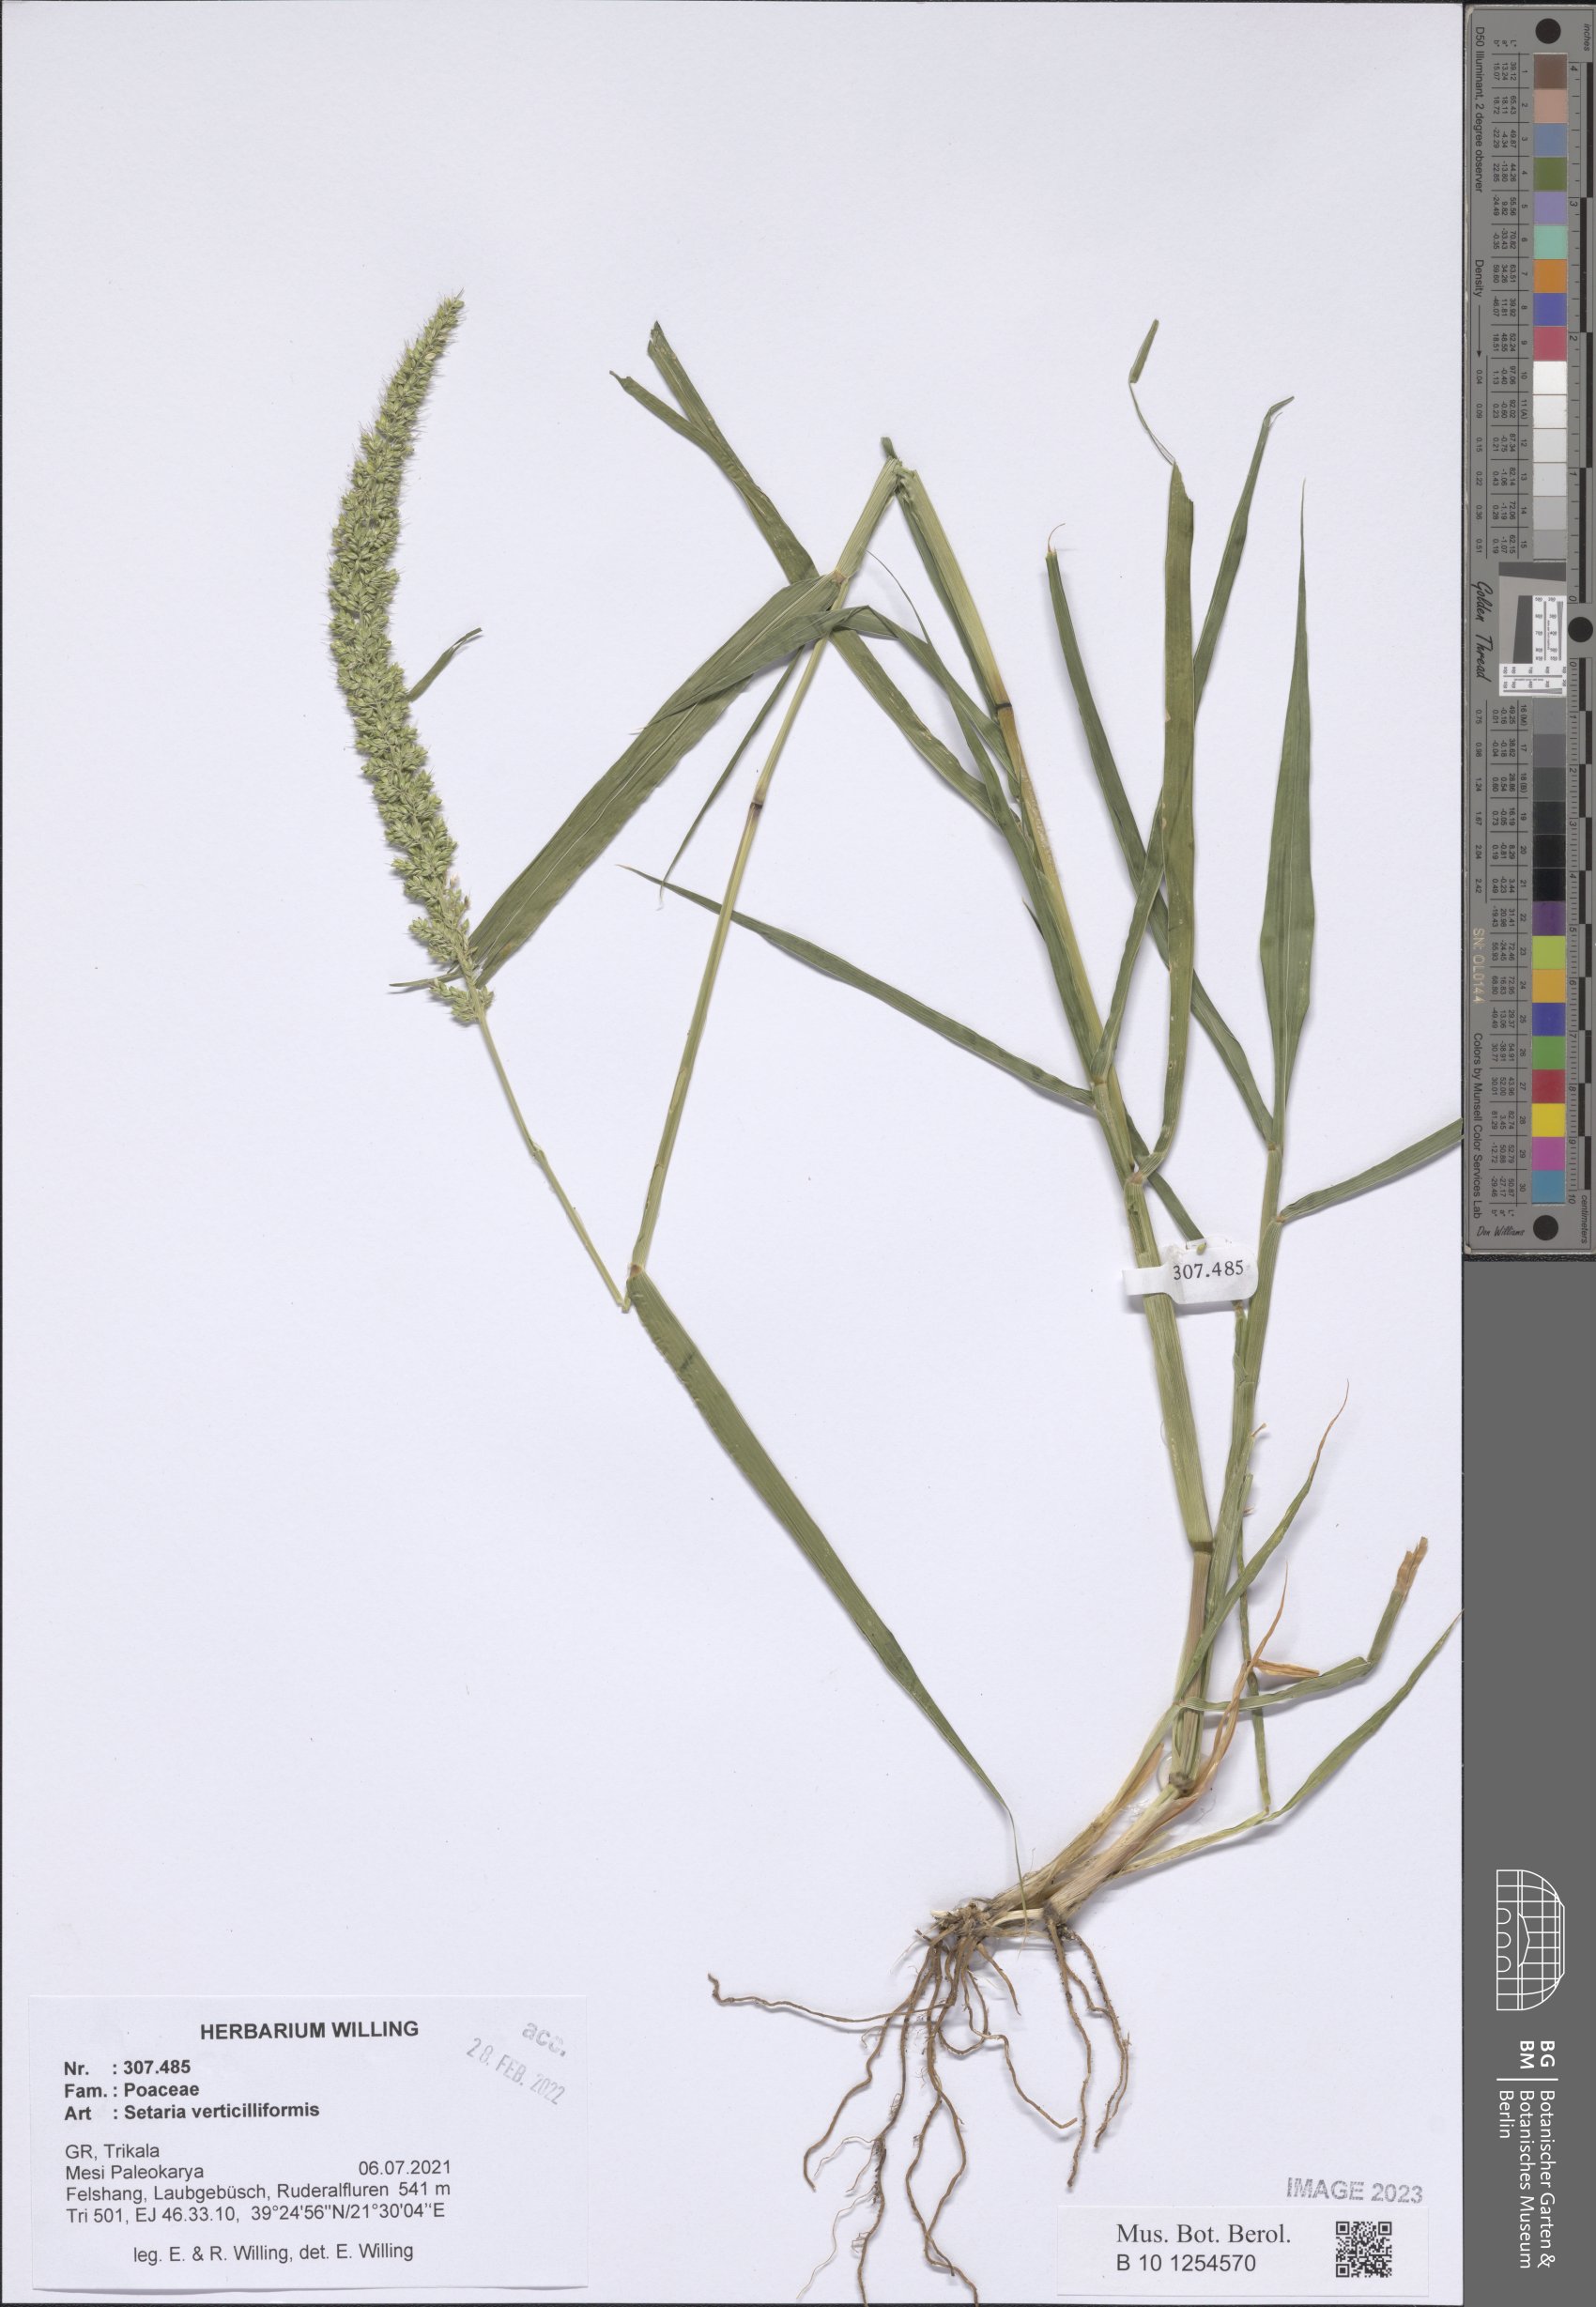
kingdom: Plantae
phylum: Tracheophyta
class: Liliopsida
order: Poales
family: Poaceae
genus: Setaria
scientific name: Setaria verticillata
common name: Hooked bristlegrass
